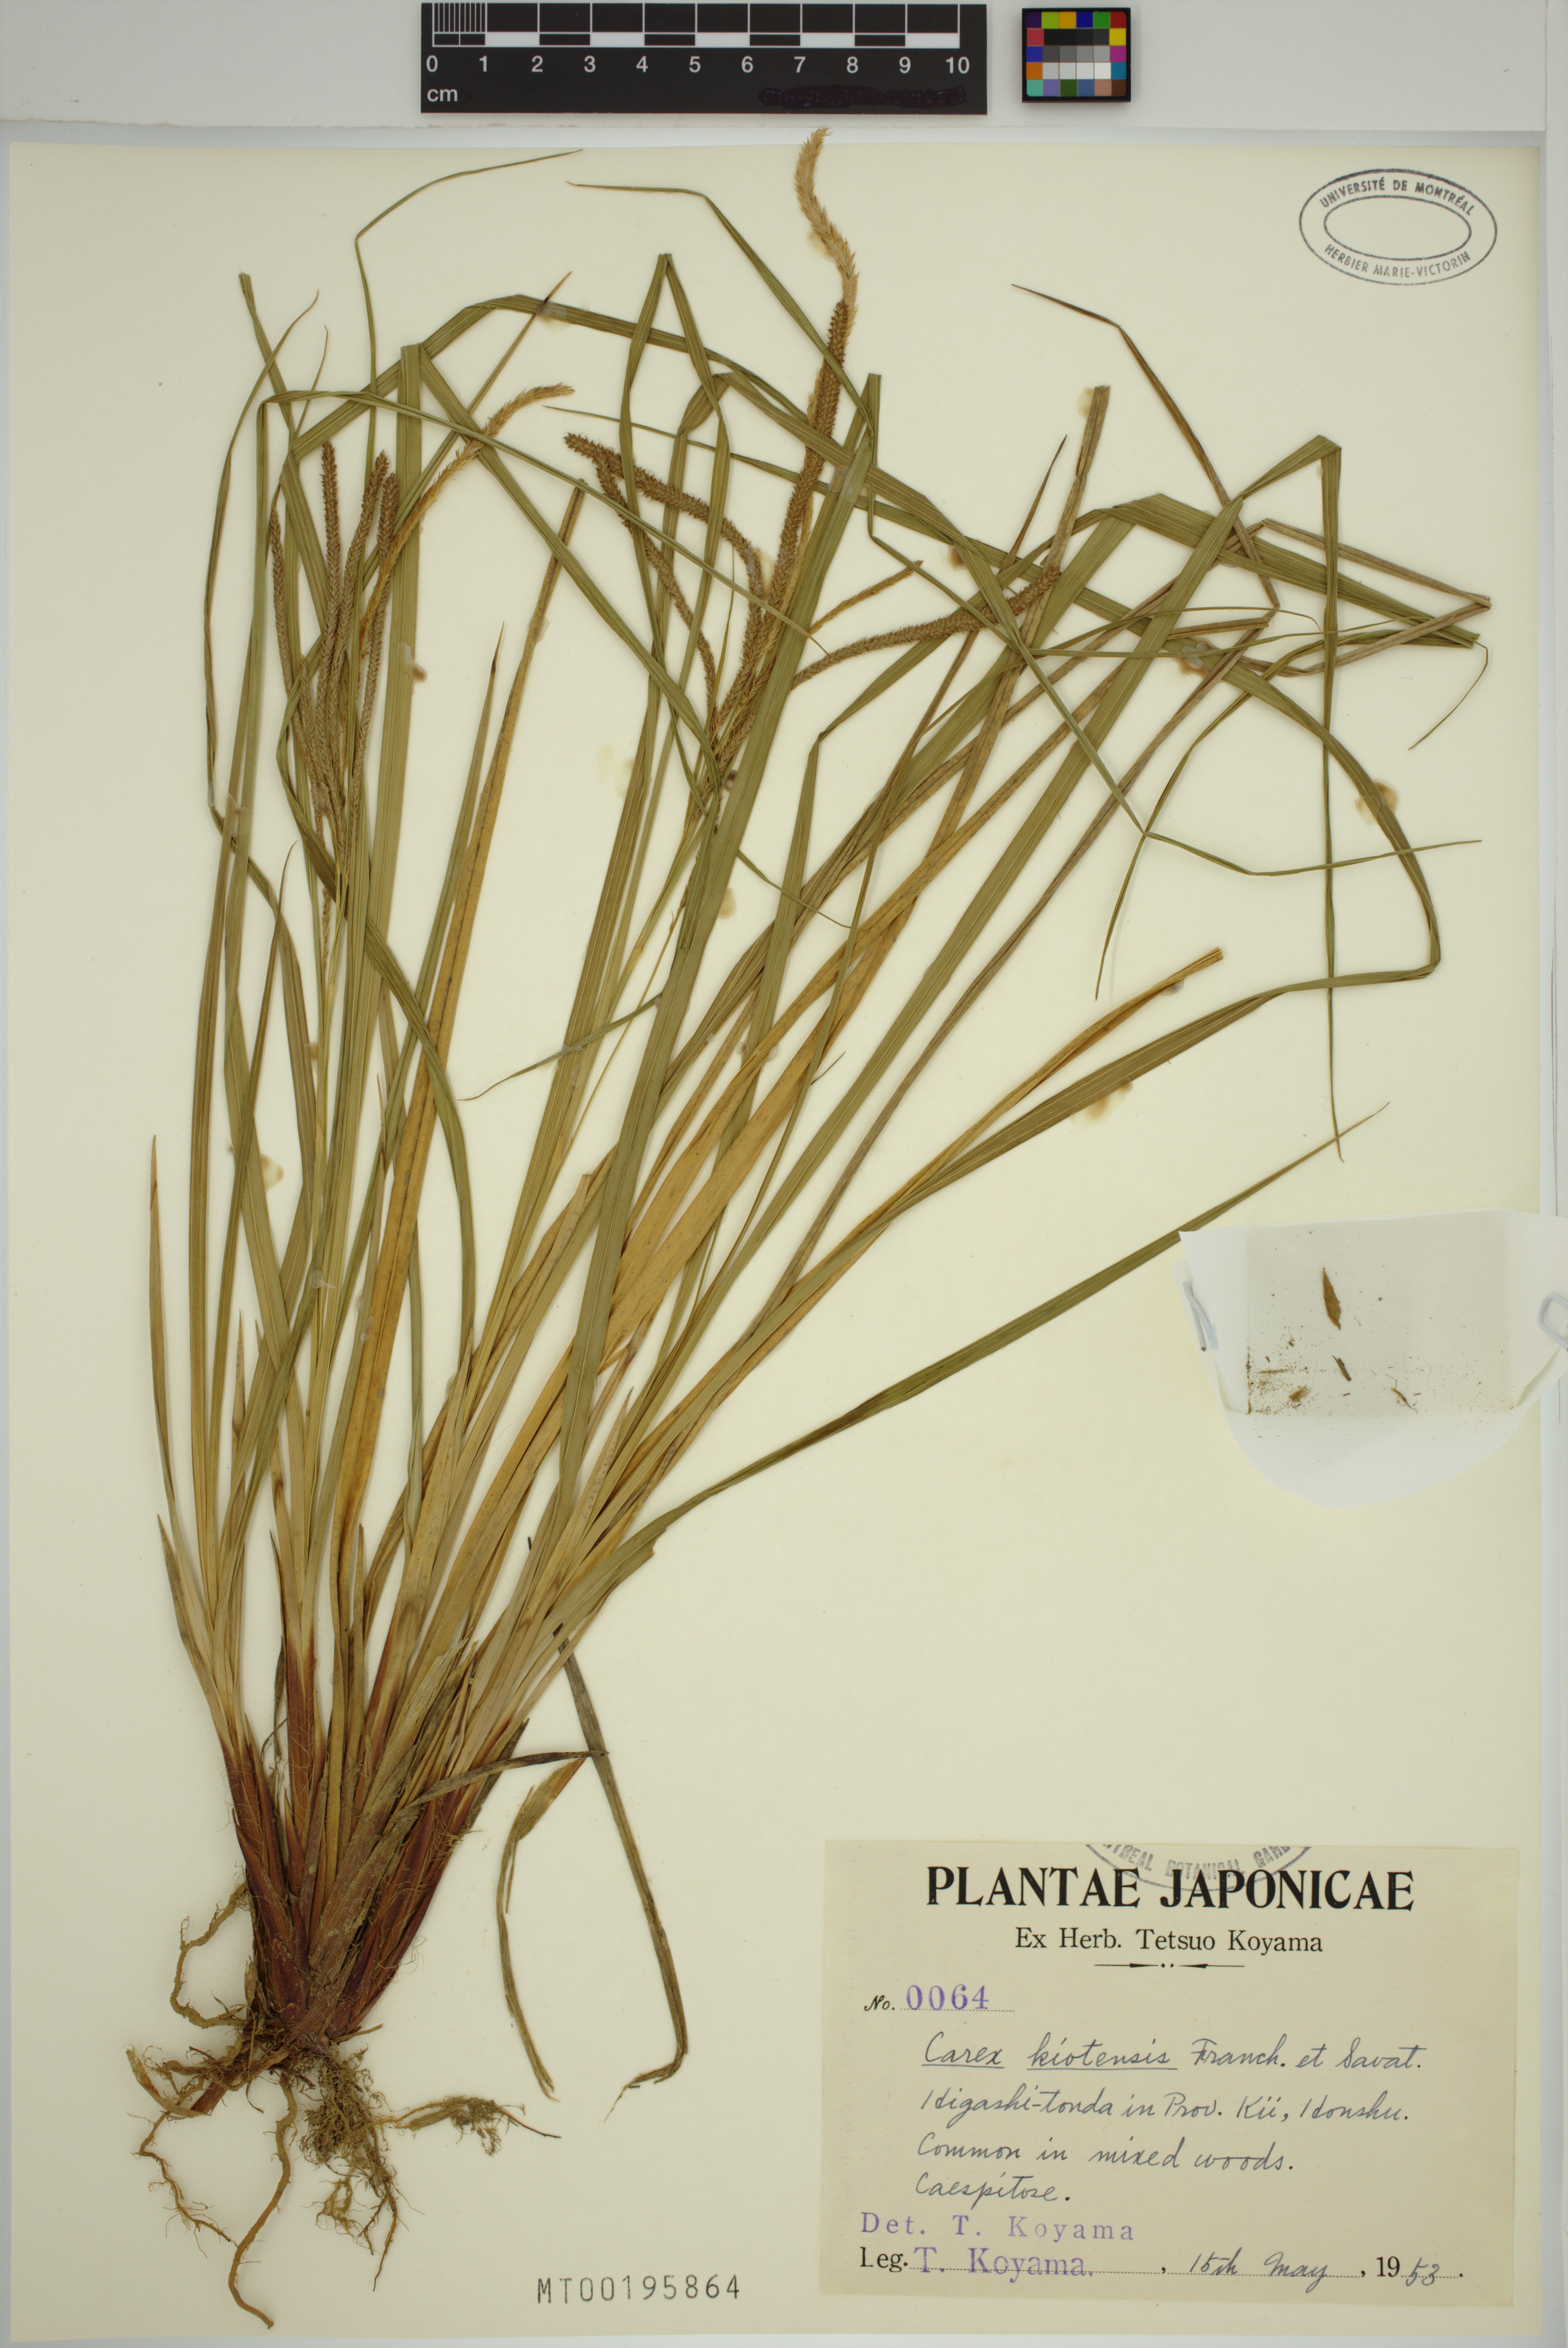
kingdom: Plantae
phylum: Tracheophyta
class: Liliopsida
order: Poales
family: Cyperaceae
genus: Carex
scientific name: Carex kiotensis
